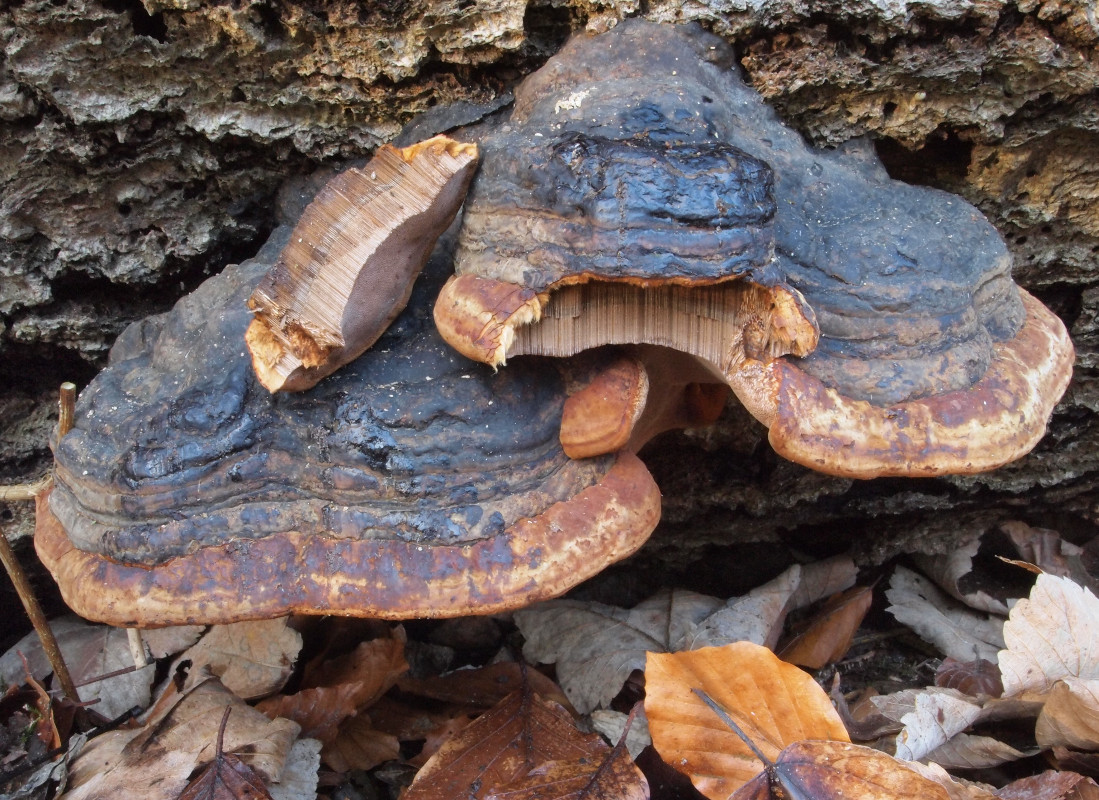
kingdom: Fungi
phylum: Basidiomycota
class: Agaricomycetes
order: Polyporales
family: Polyporaceae
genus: Fomes
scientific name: Fomes fomentarius
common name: tøndersvamp
